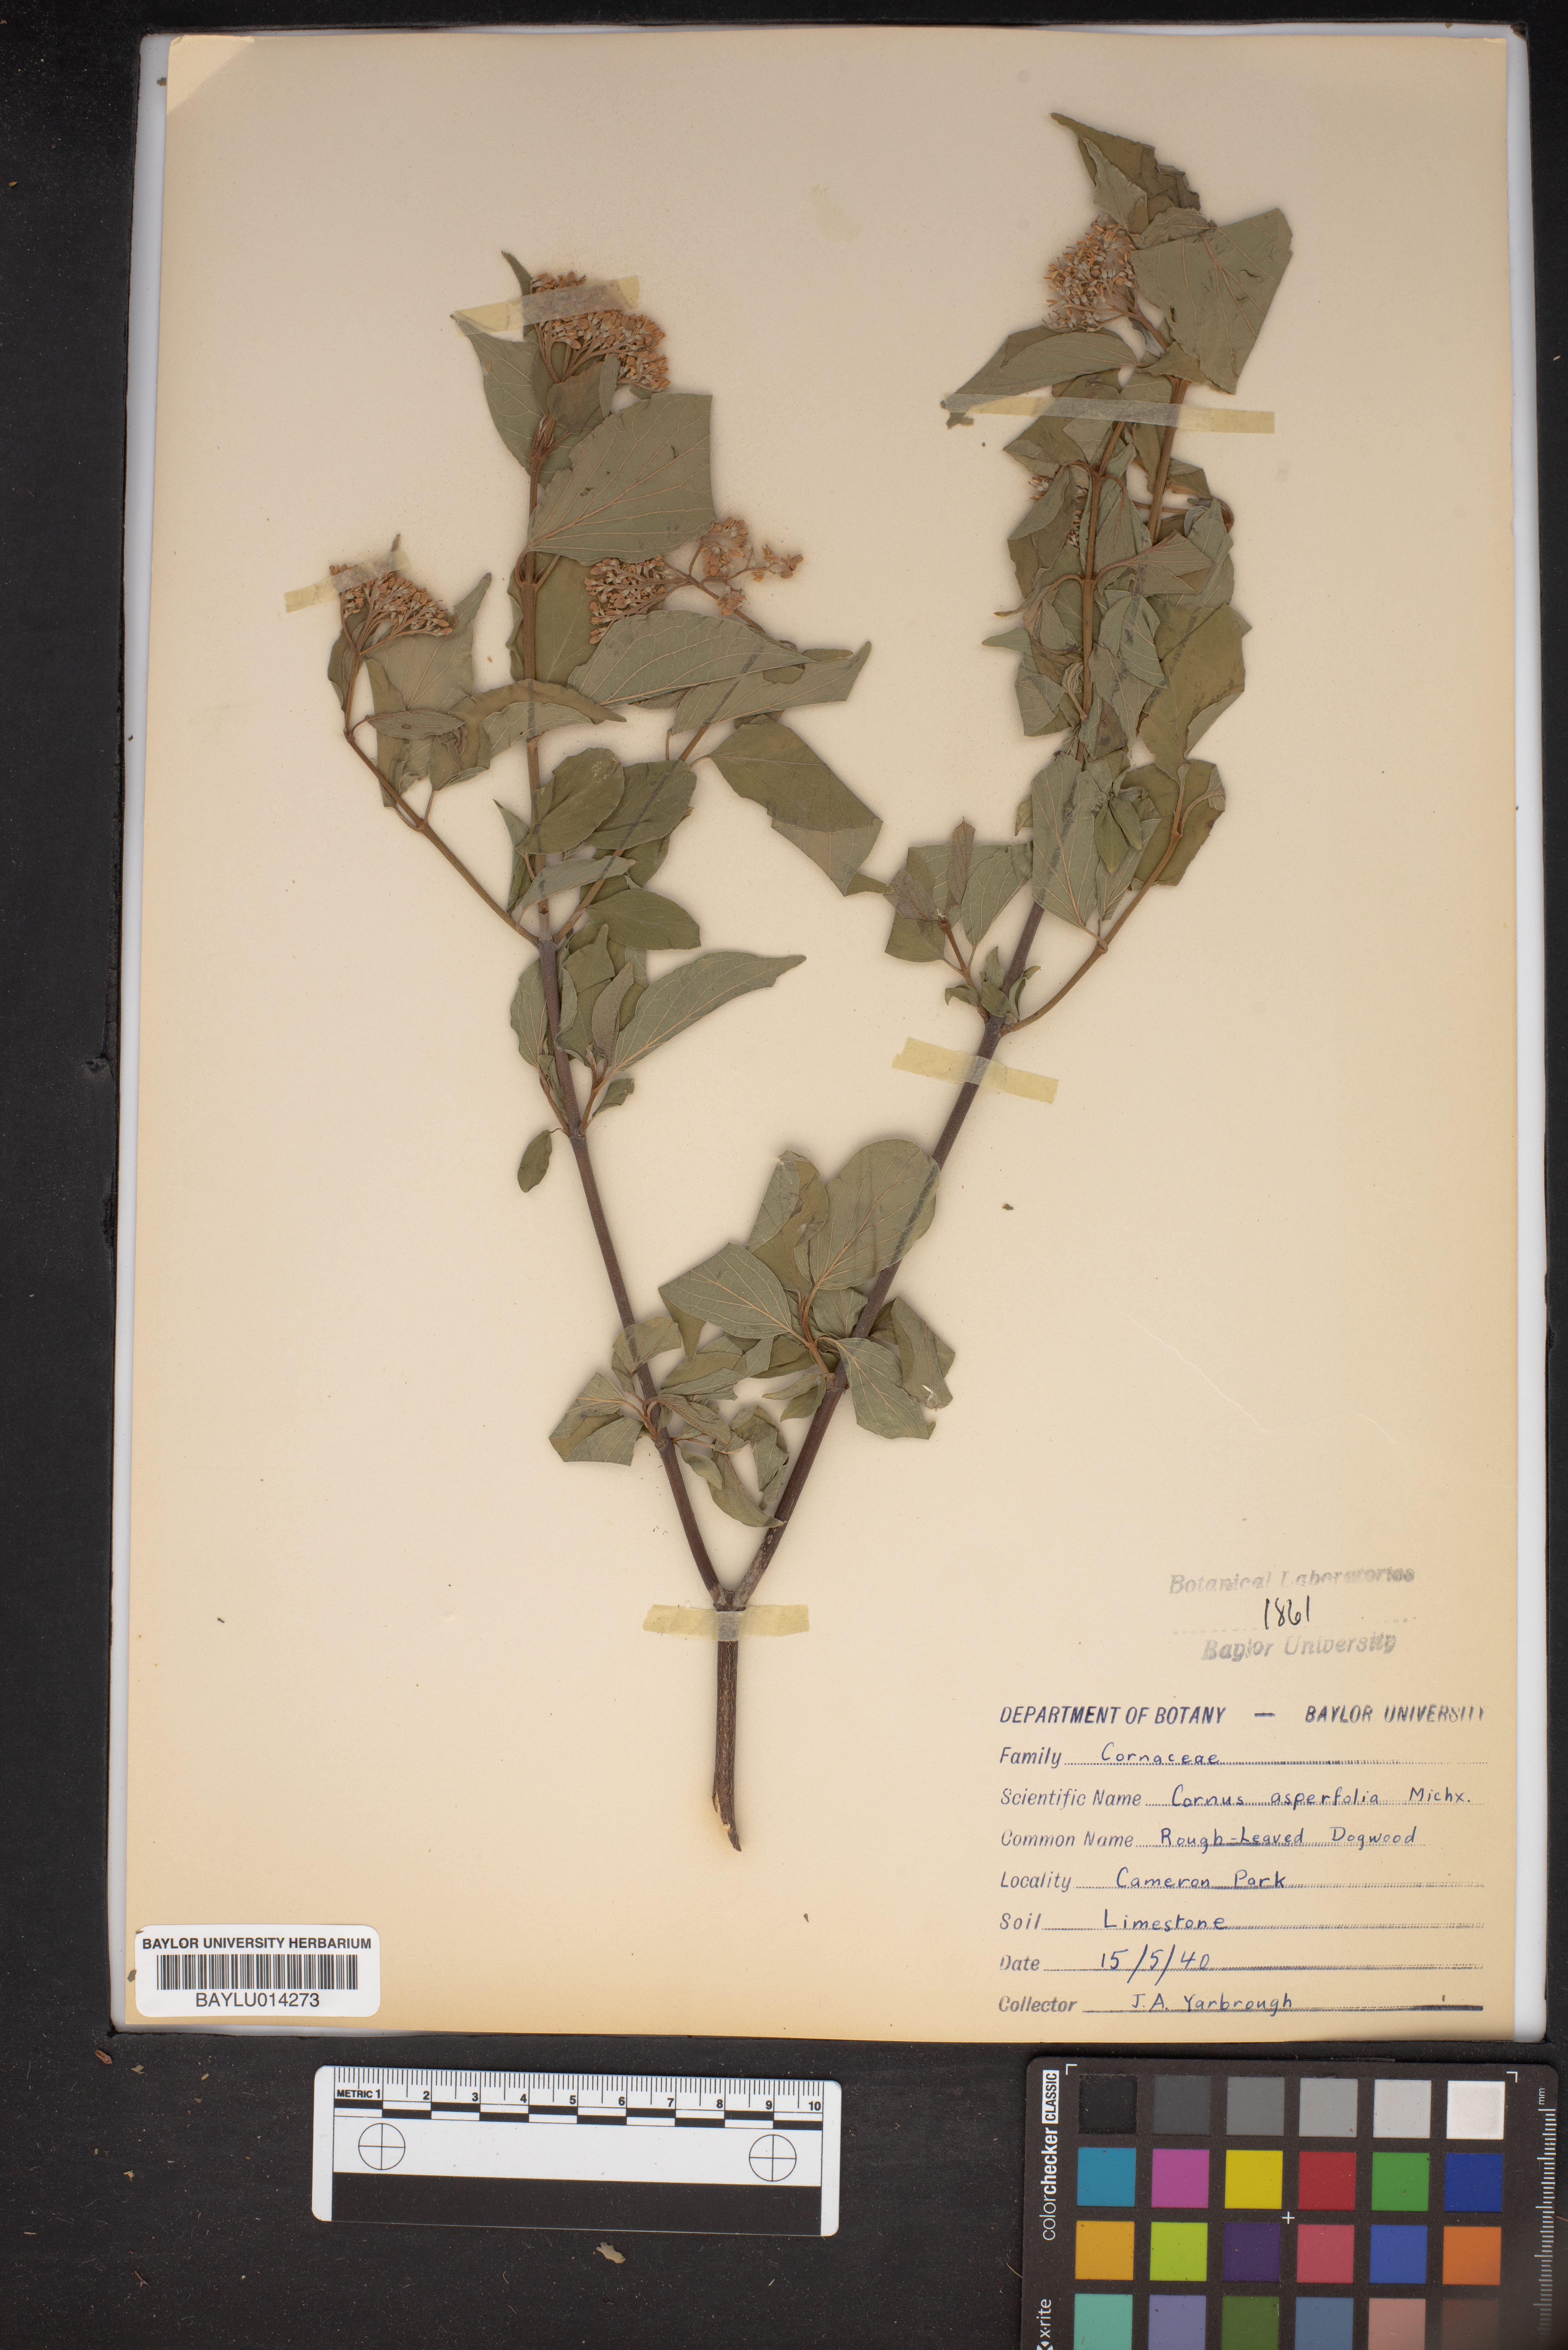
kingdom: Plantae
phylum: Tracheophyta
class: Magnoliopsida
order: Cornales
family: Cornaceae
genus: Cornus
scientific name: Cornus asperifolia
